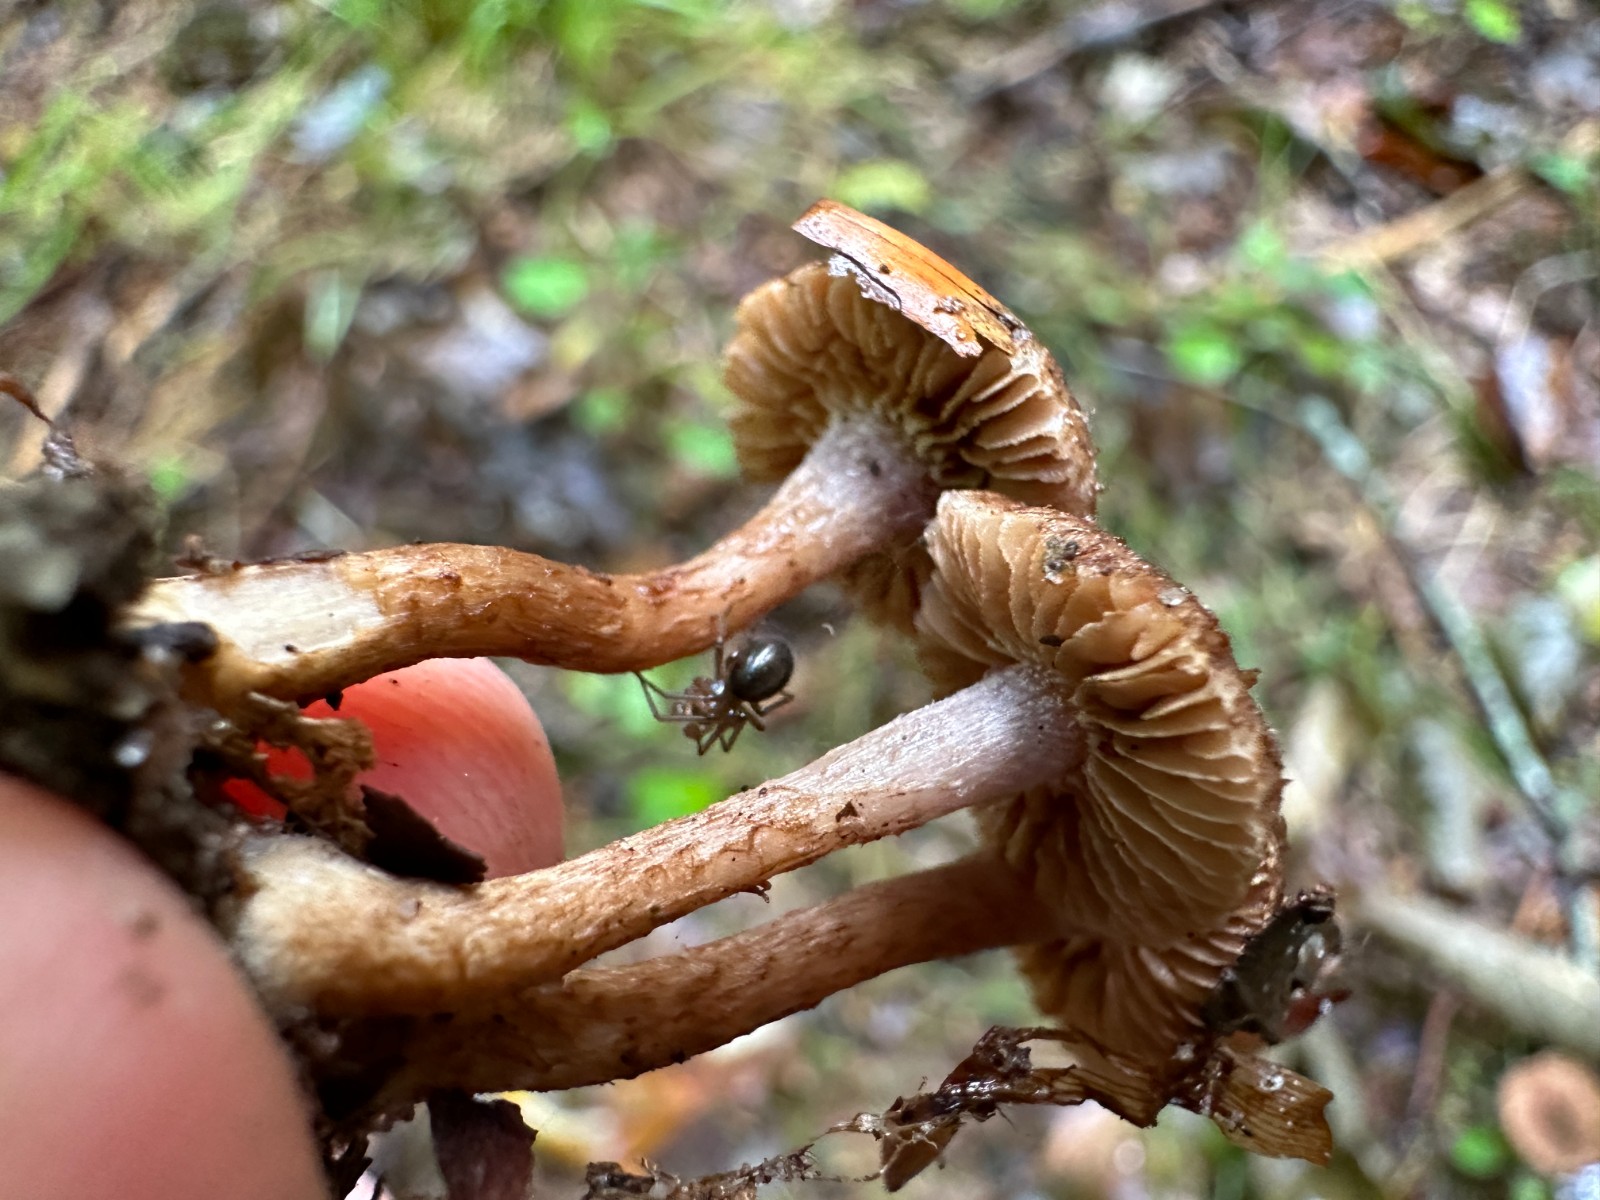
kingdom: Fungi
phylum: Basidiomycota
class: Agaricomycetes
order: Agaricales
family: Inocybaceae
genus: Inocybe
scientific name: Inocybe cincinnata
